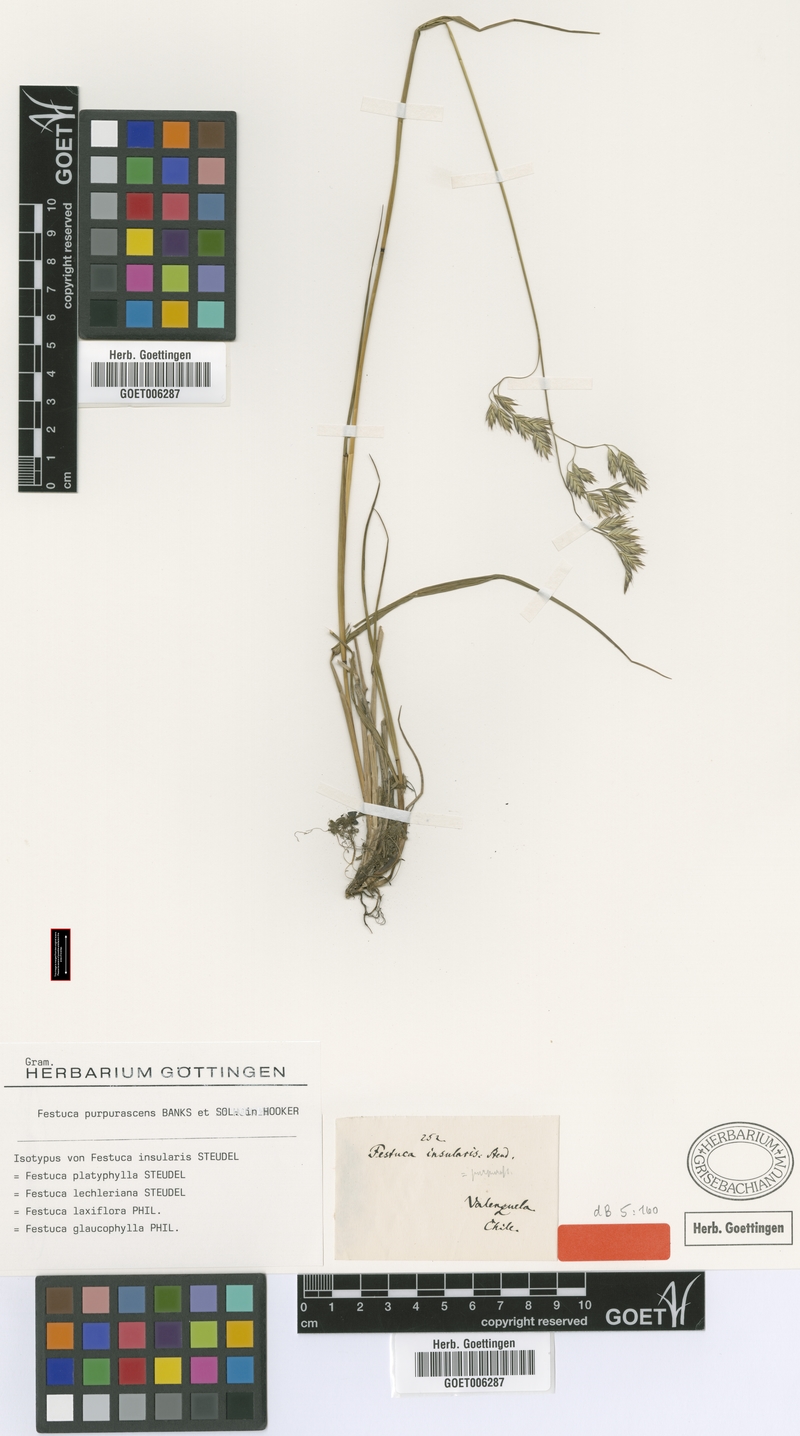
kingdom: Plantae
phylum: Tracheophyta
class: Liliopsida
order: Poales
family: Poaceae
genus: Festuca
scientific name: Festuca purpurascens
